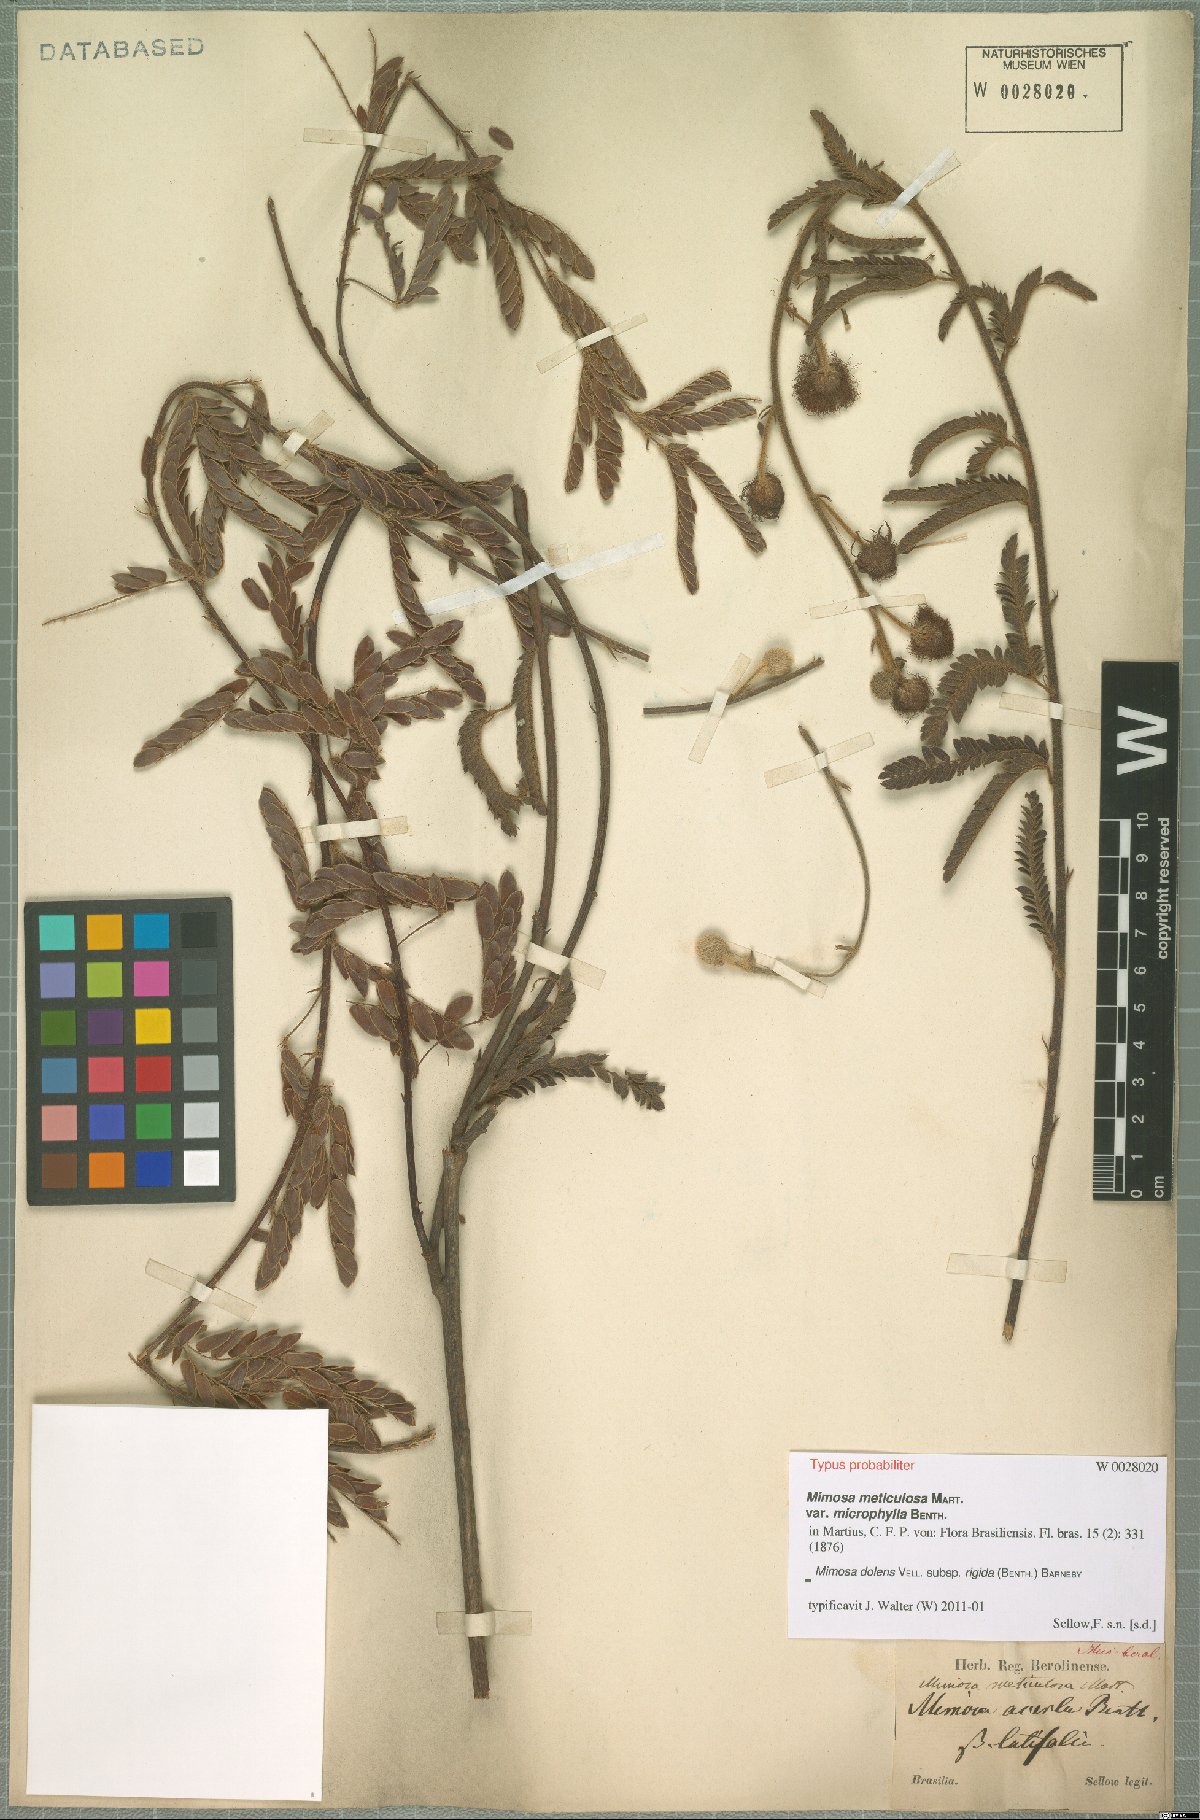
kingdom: Plantae
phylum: Tracheophyta
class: Magnoliopsida
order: Fabales
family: Fabaceae
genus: Mimosa
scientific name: Mimosa dolens
